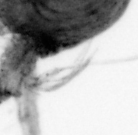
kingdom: Animalia
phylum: Arthropoda
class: Copepoda
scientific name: Copepoda
